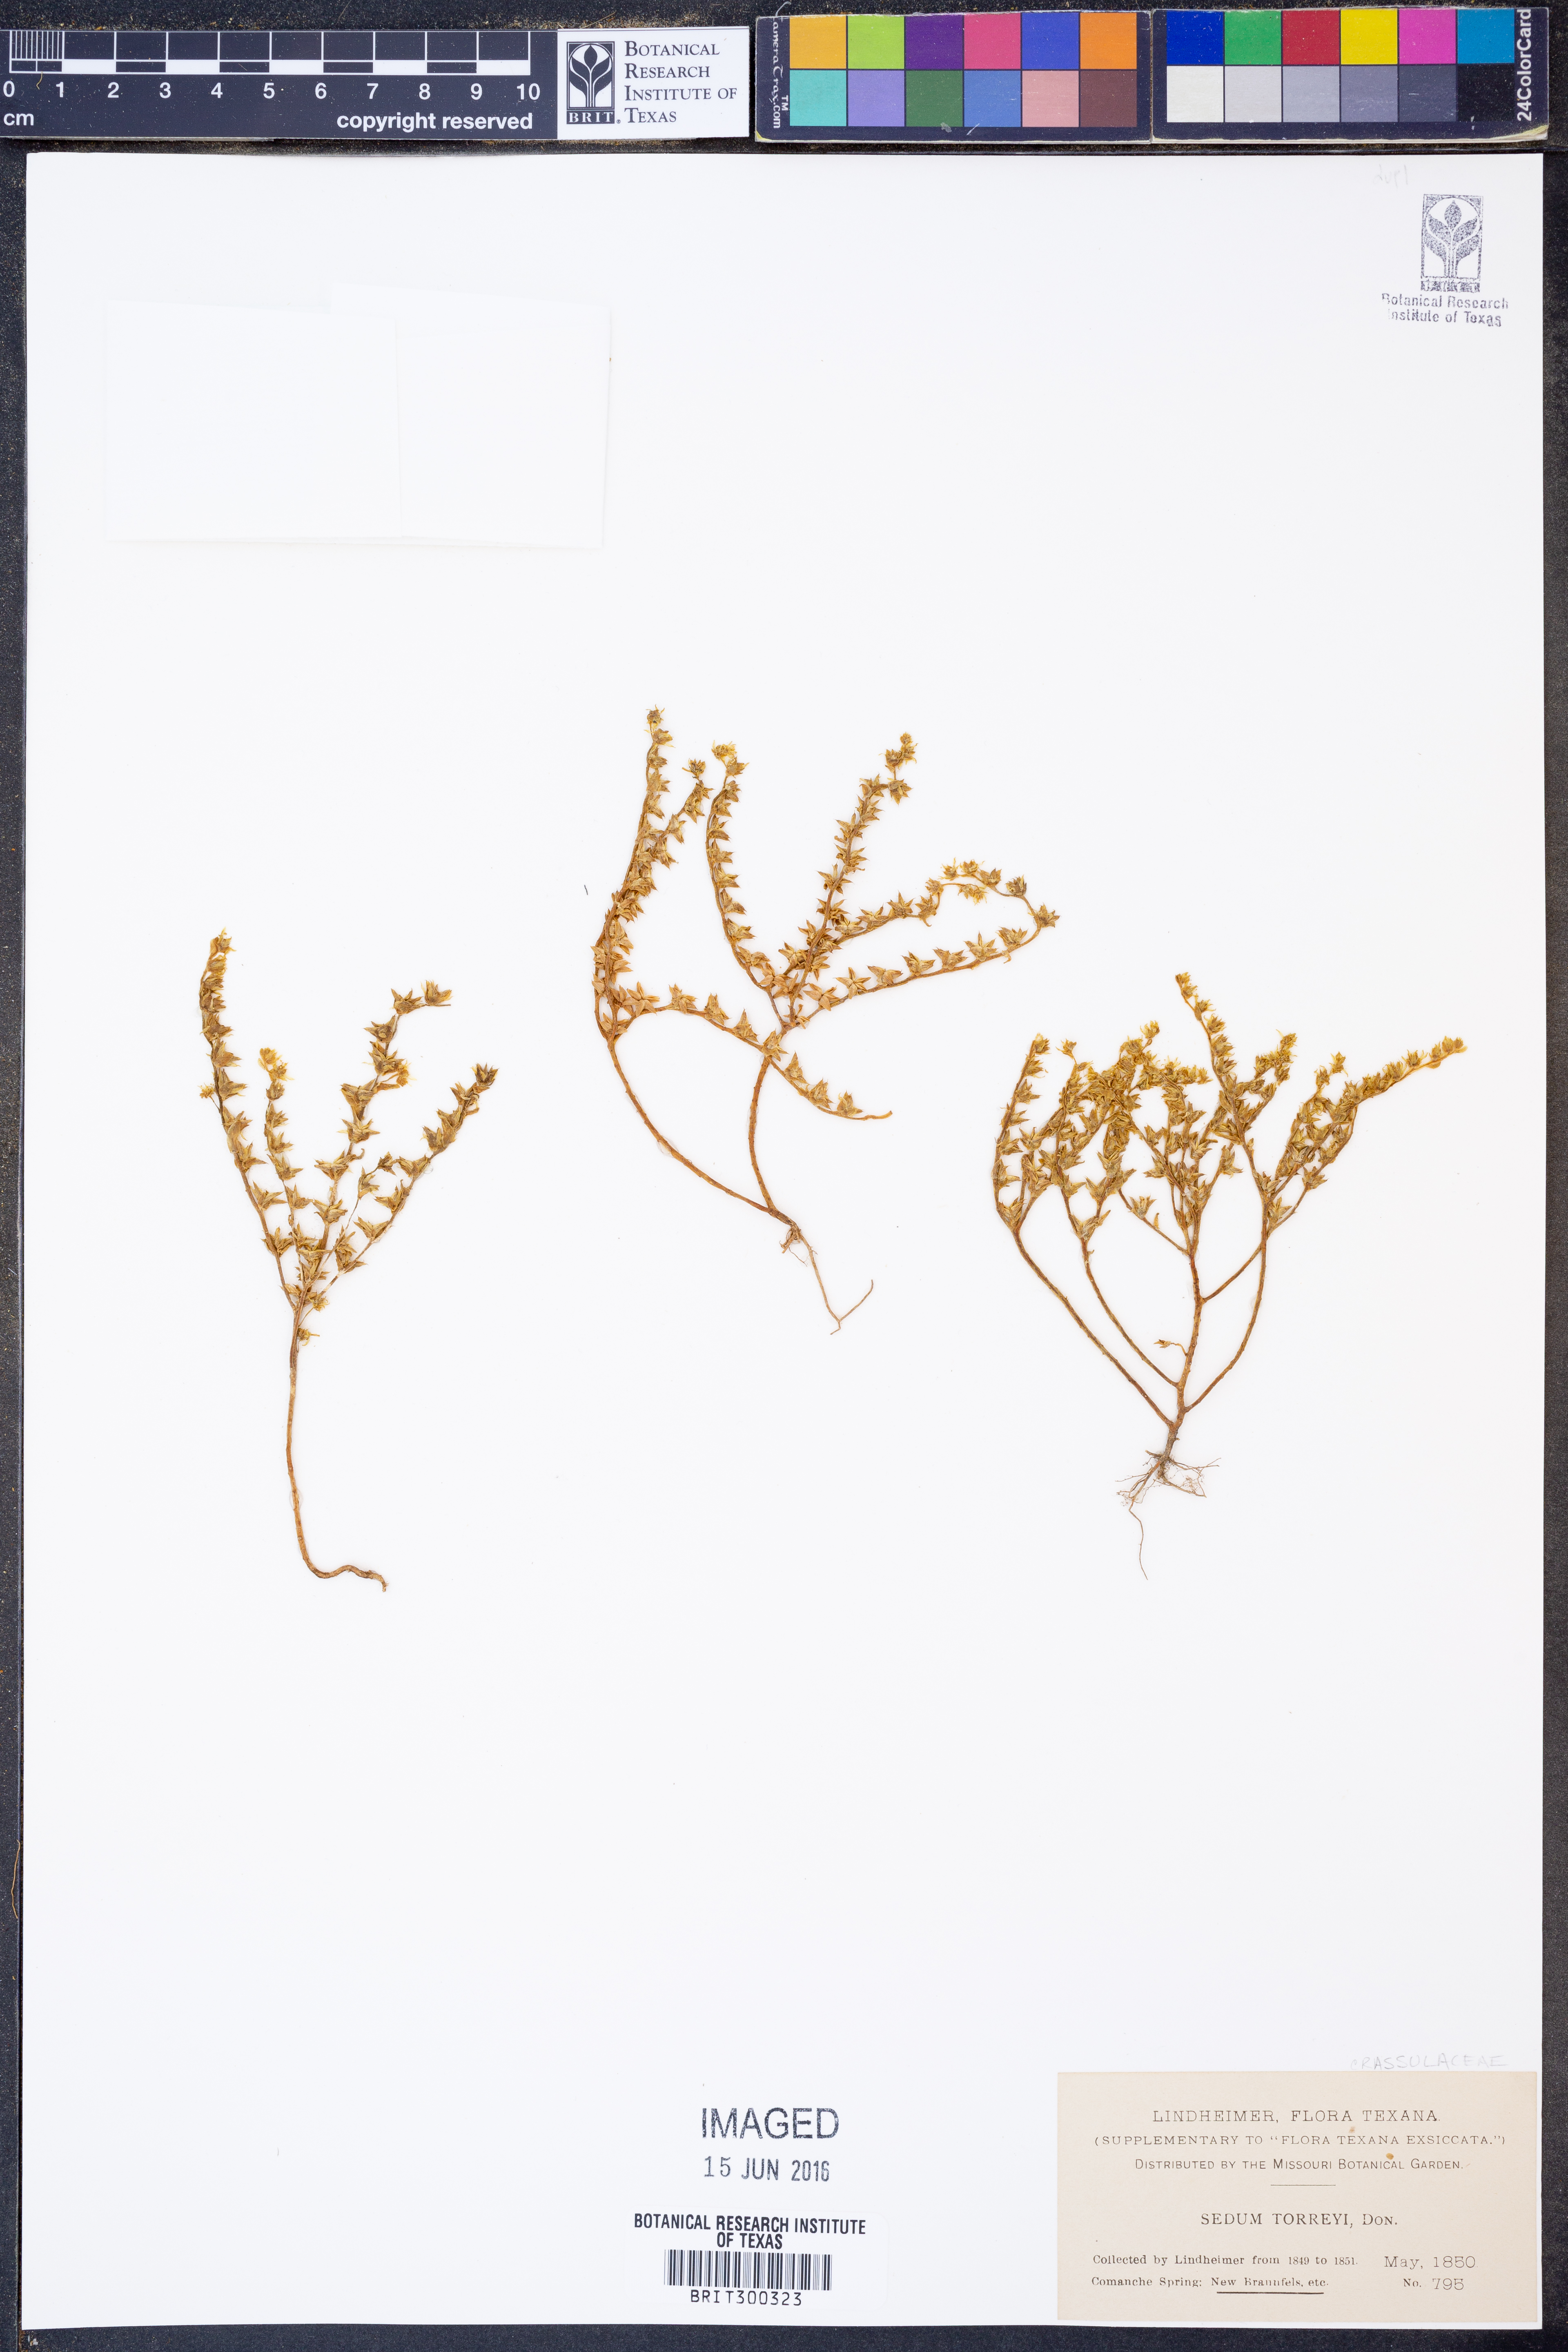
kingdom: Plantae
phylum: Tracheophyta
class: Magnoliopsida
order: Saxifragales
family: Crassulaceae
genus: Sedum
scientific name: Sedum nuttallii
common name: Yellow stonecrop
